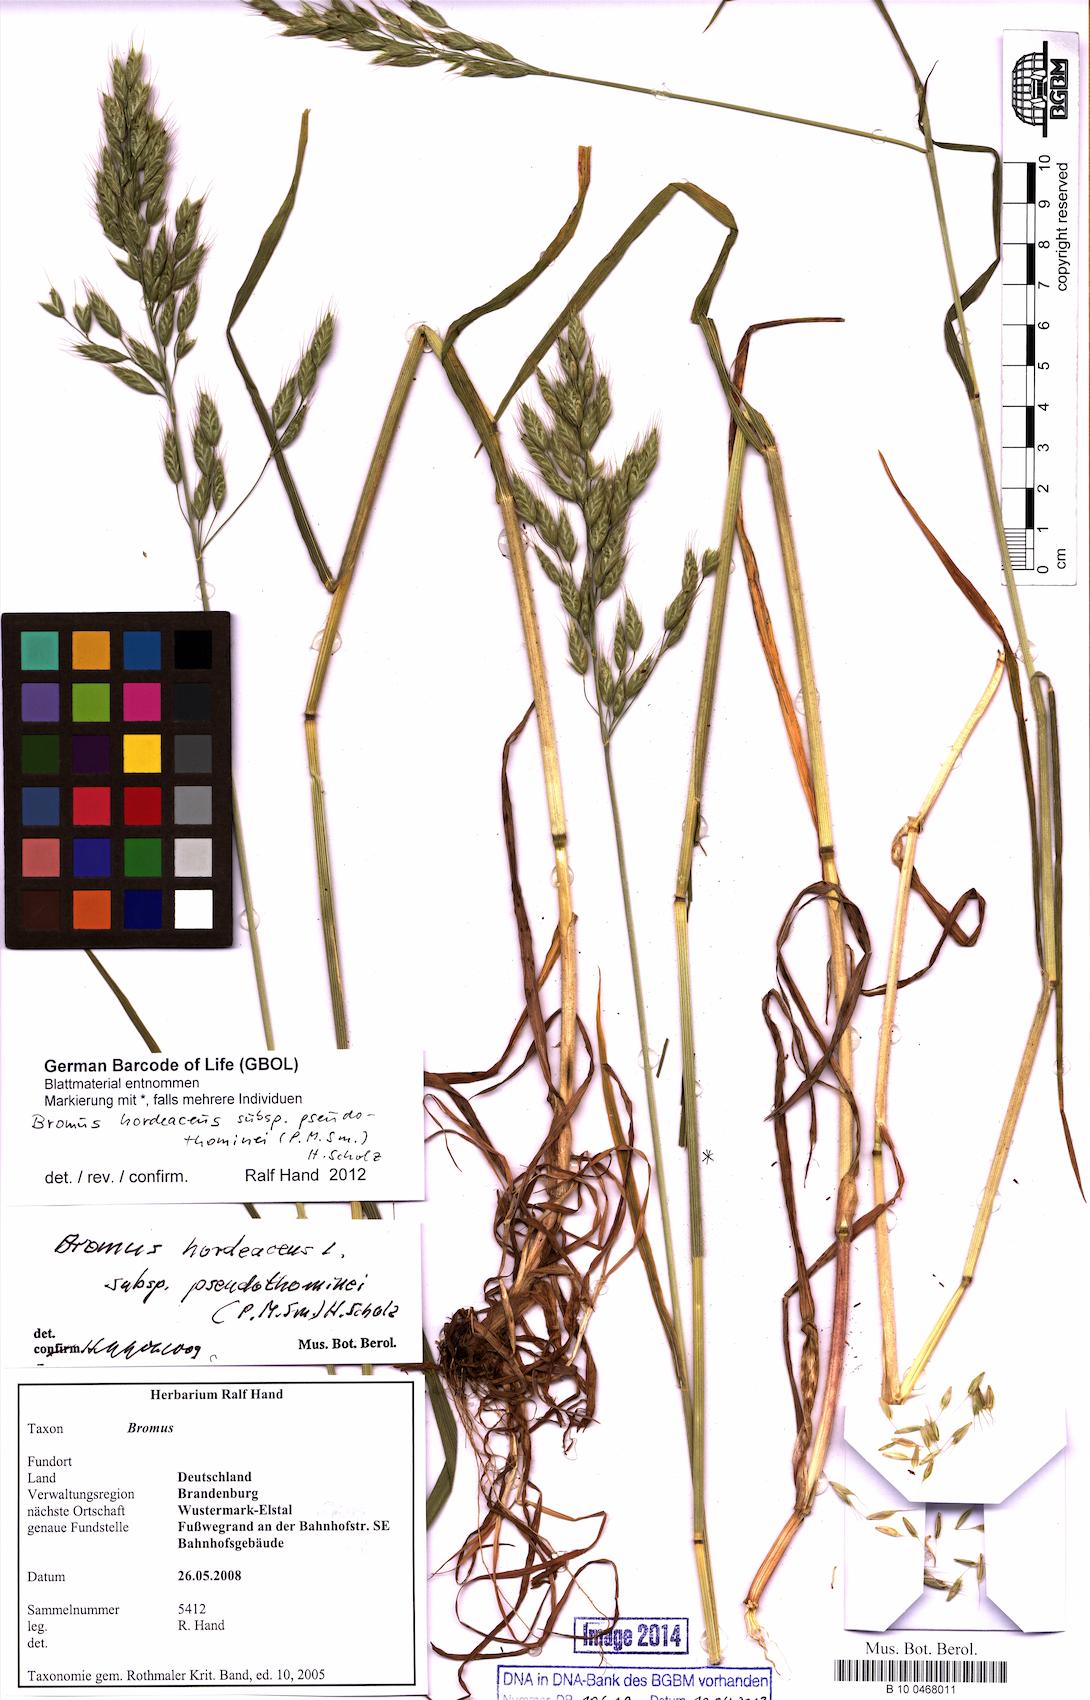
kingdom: Plantae
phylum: Tracheophyta
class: Liliopsida
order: Poales
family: Poaceae
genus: Bromus
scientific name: Bromus ferronii
